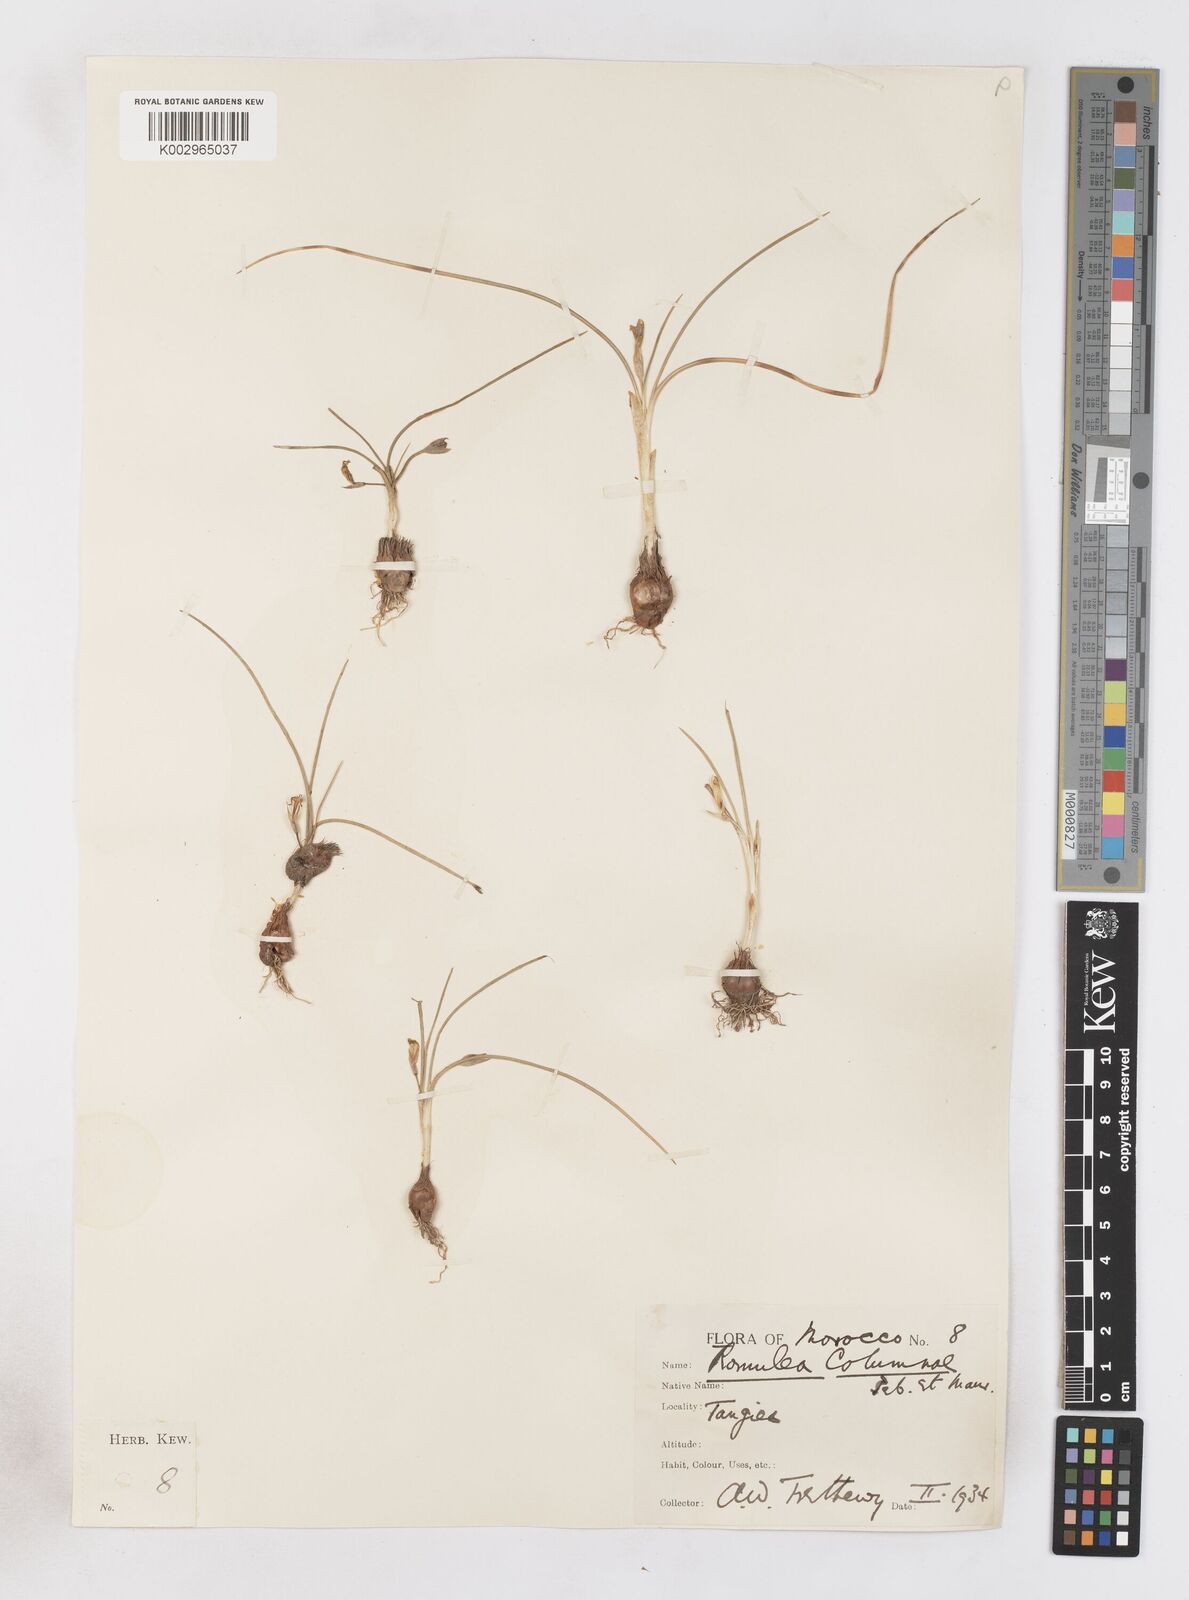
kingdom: Plantae
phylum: Tracheophyta
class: Liliopsida
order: Asparagales
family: Iridaceae
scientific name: Iridaceae
